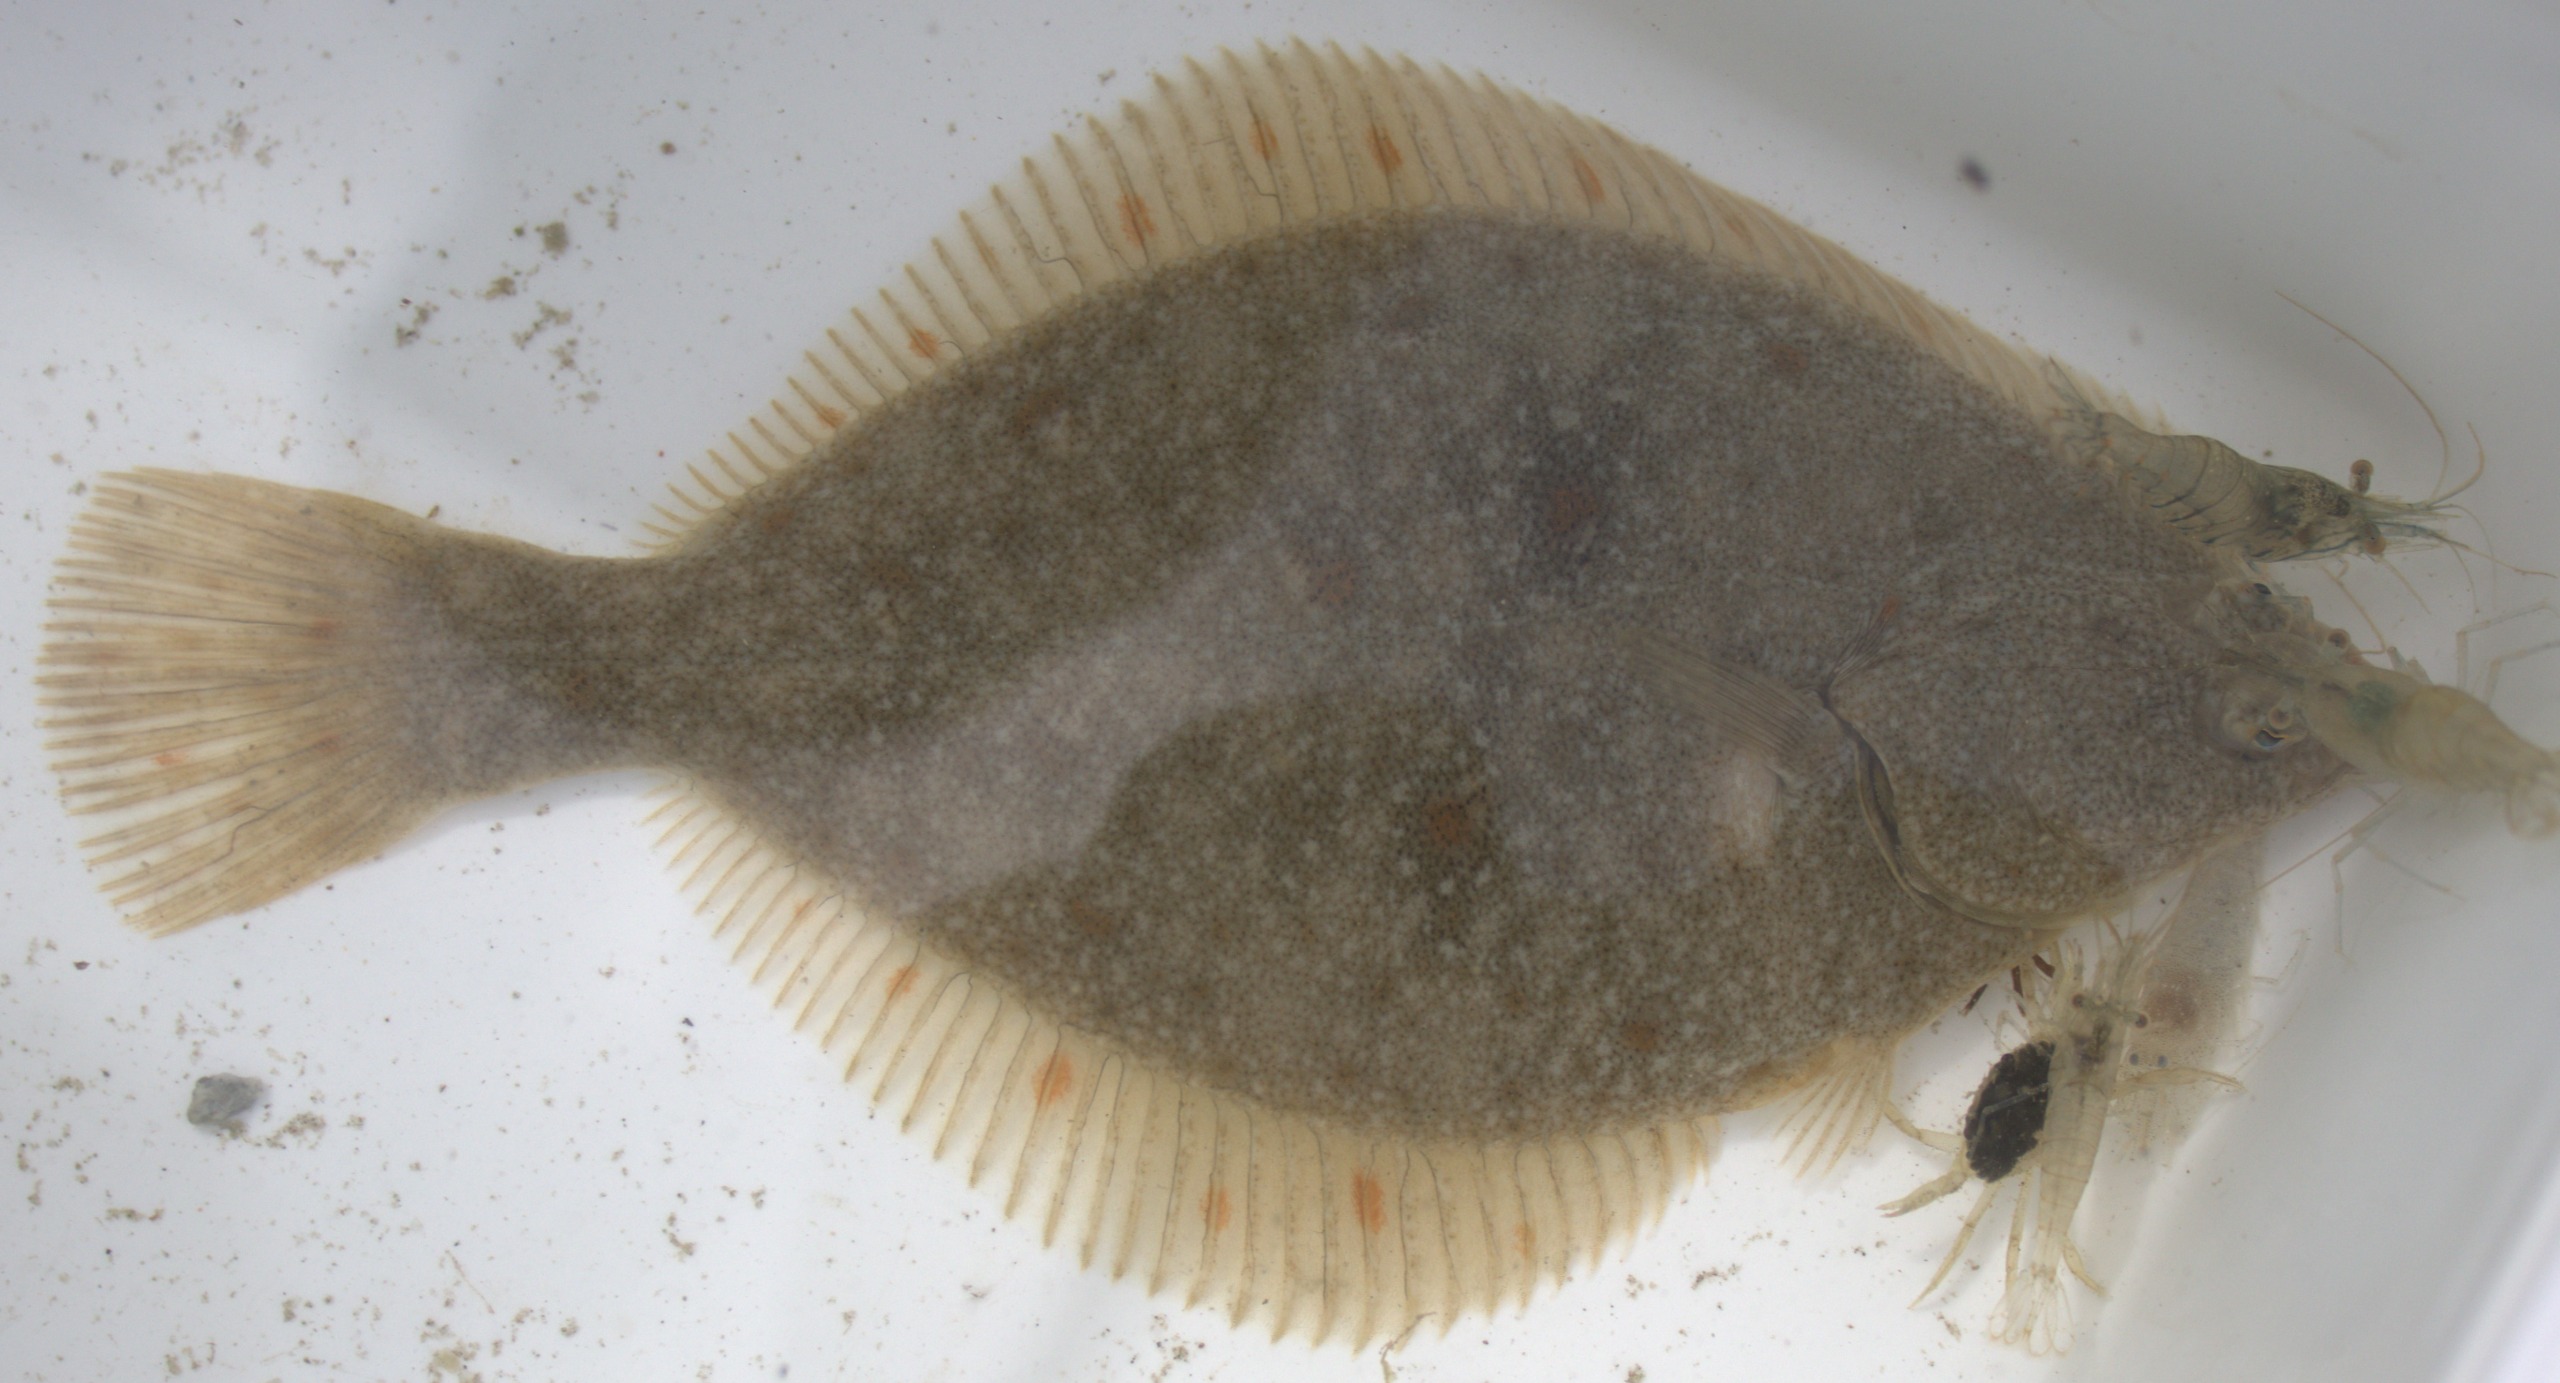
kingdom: Animalia
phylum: Chordata
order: Pleuronectiformes
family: Pleuronectidae
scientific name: Pleuronectidae
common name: Rødspættefamilien
